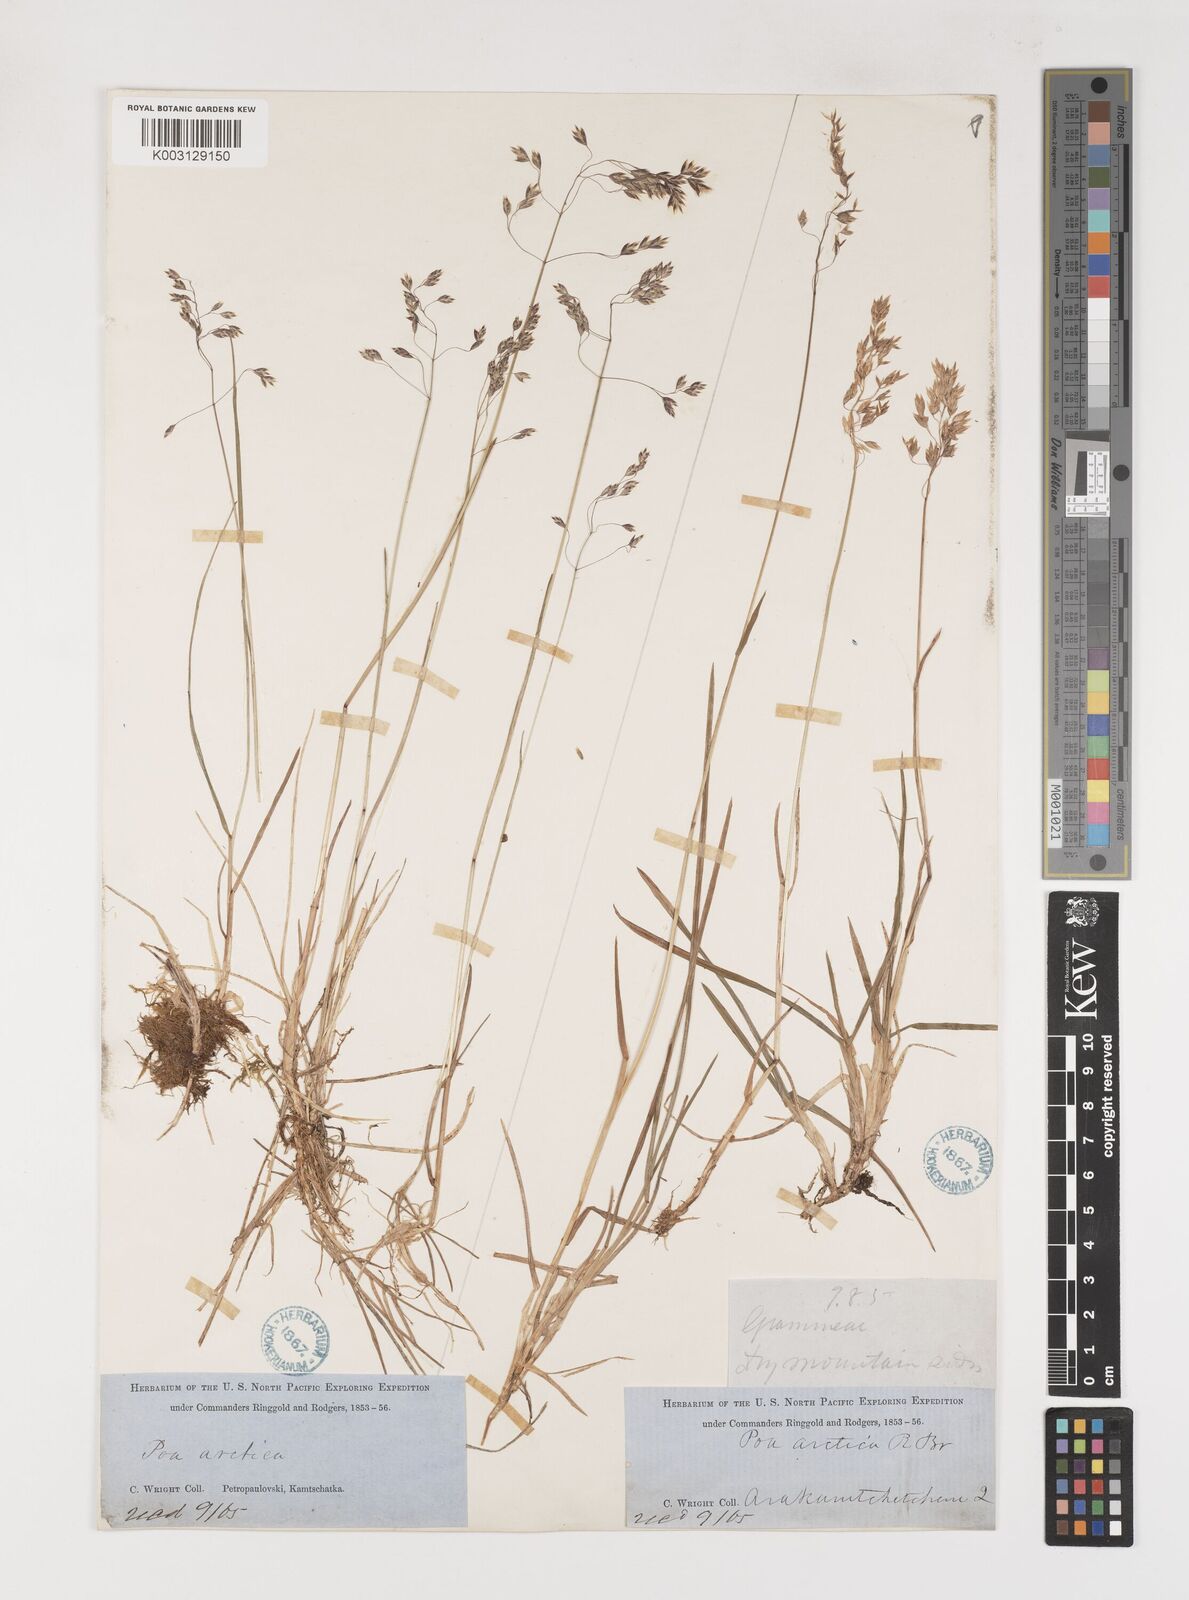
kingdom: Plantae
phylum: Tracheophyta
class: Liliopsida
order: Poales
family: Poaceae
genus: Poa
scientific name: Poa arctica
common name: Arctic bluegrass
